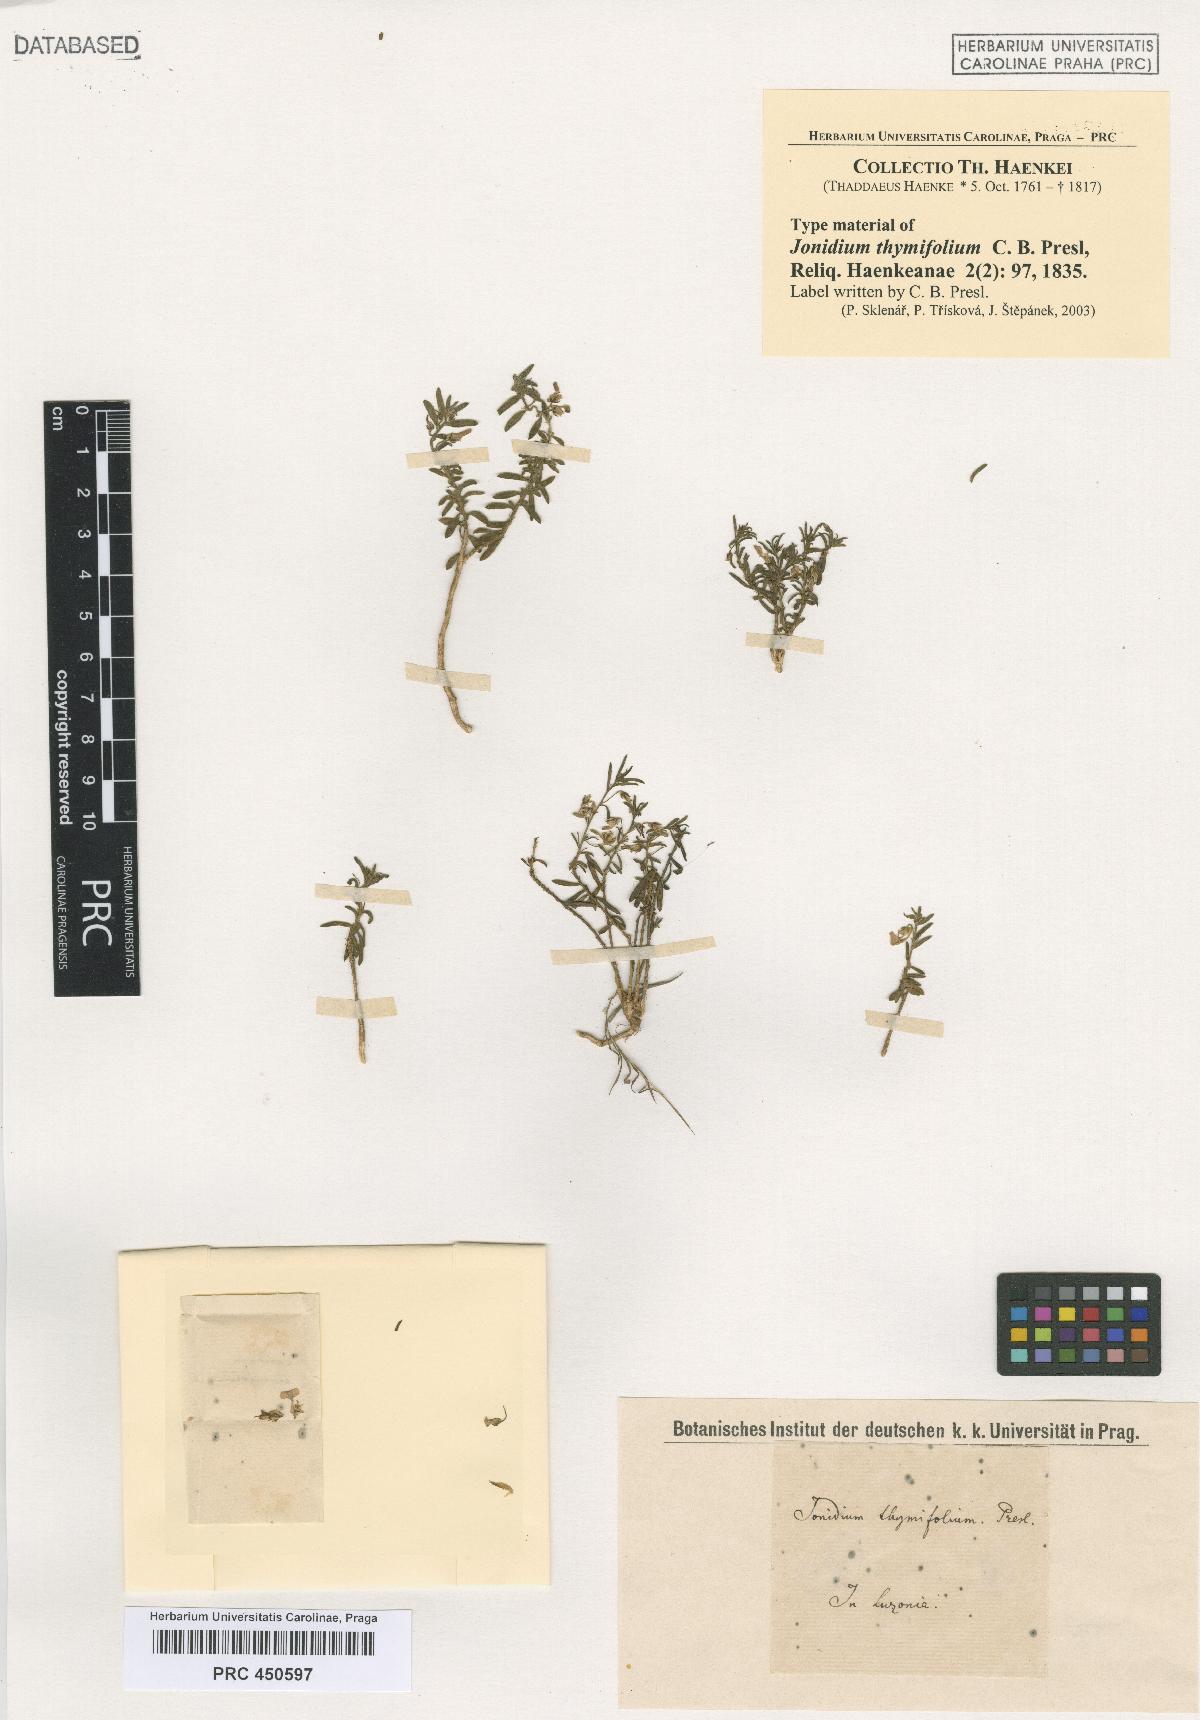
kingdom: Plantae
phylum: Tracheophyta
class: Magnoliopsida
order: Malpighiales
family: Violaceae
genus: Pigea
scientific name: Pigea enneasperma
